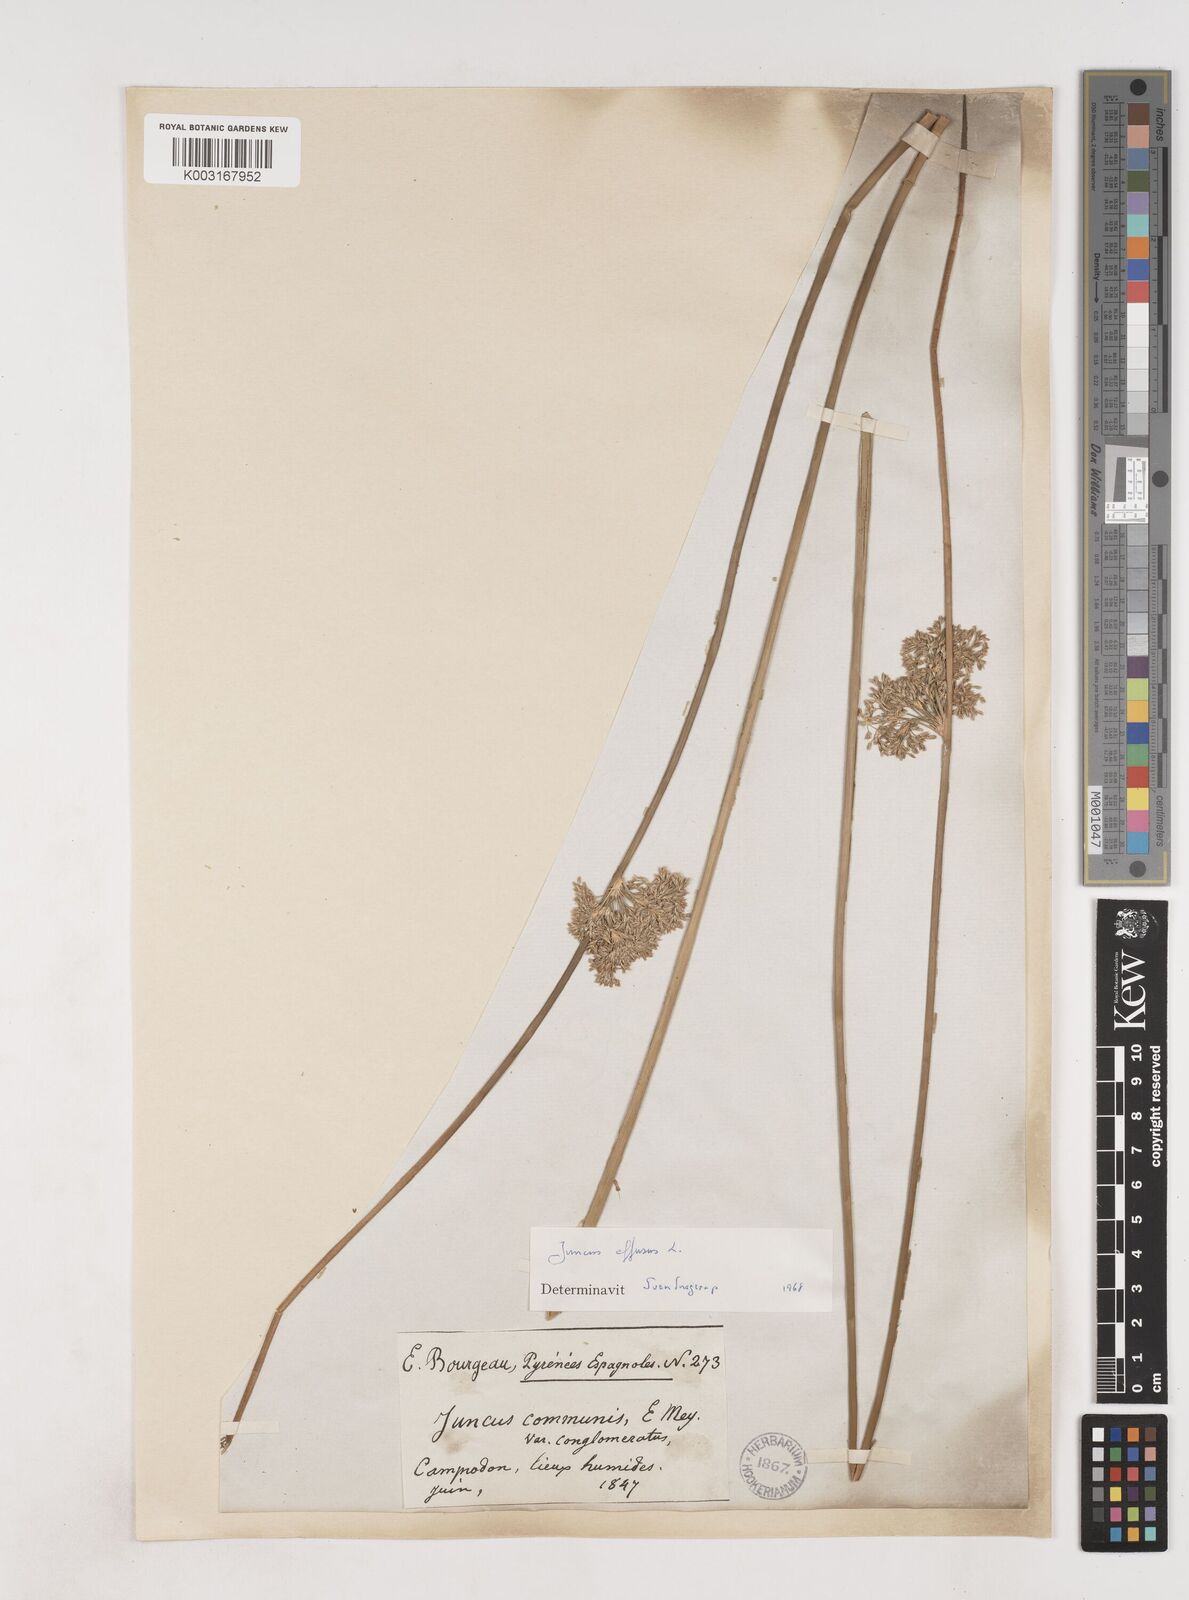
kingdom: Plantae
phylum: Tracheophyta
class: Liliopsida
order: Poales
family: Juncaceae
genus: Juncus
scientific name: Juncus effusus
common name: Soft rush
